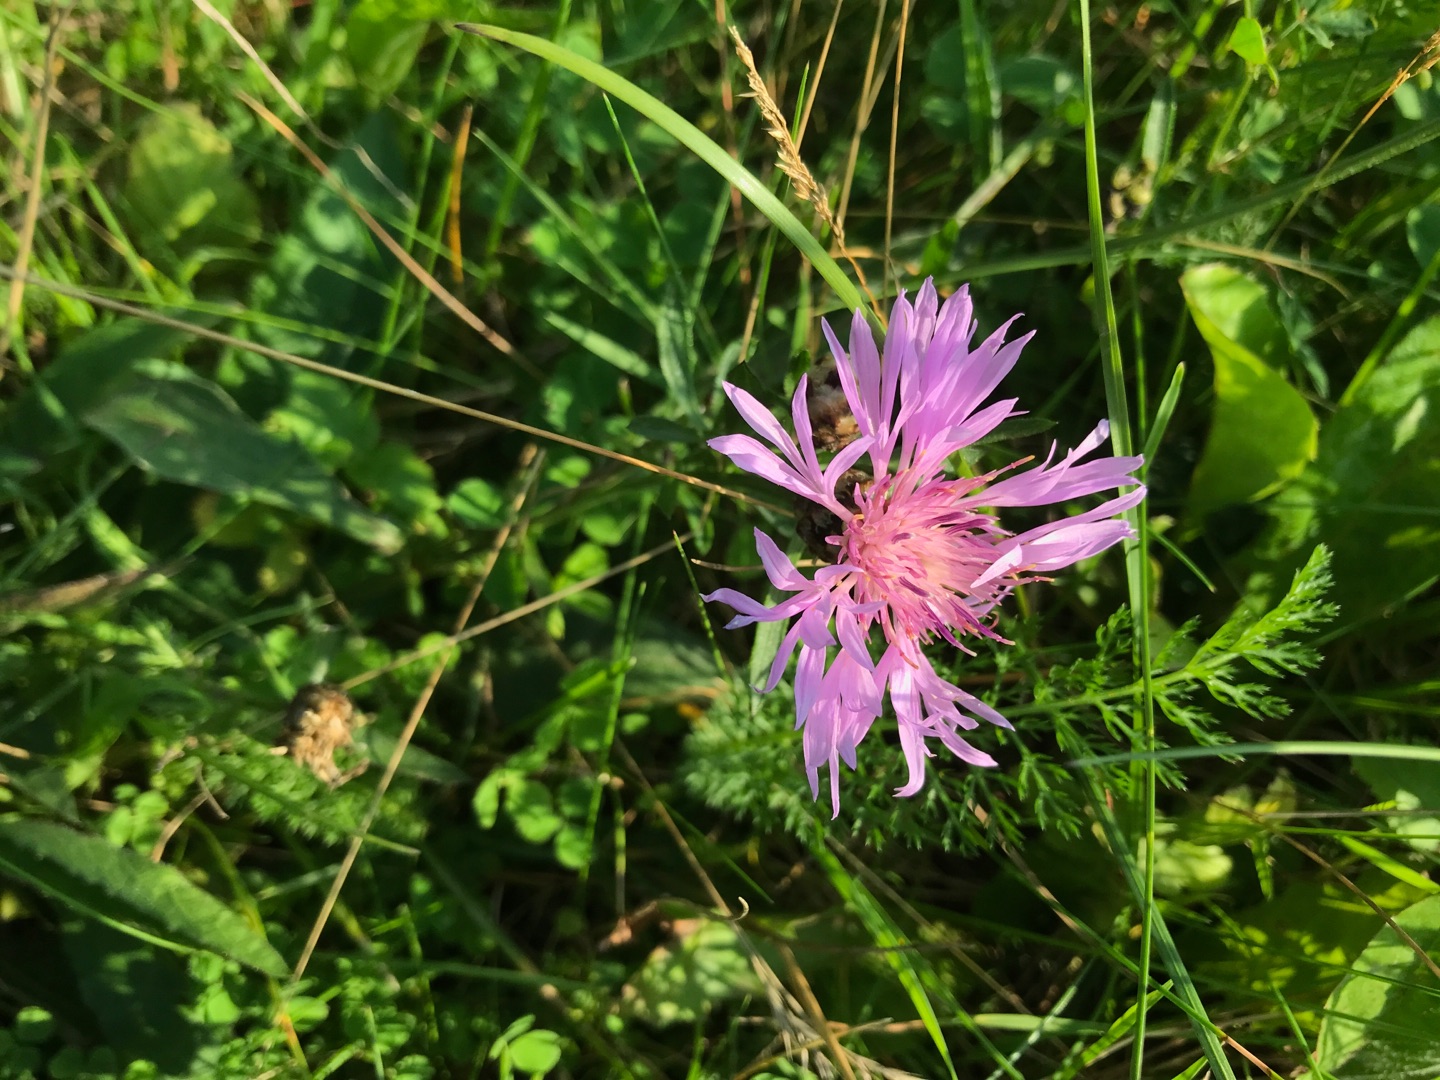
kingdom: Plantae
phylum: Tracheophyta
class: Magnoliopsida
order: Asterales
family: Asteraceae
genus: Centaurea
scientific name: Centaurea jacea
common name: Almindelig knopurt
